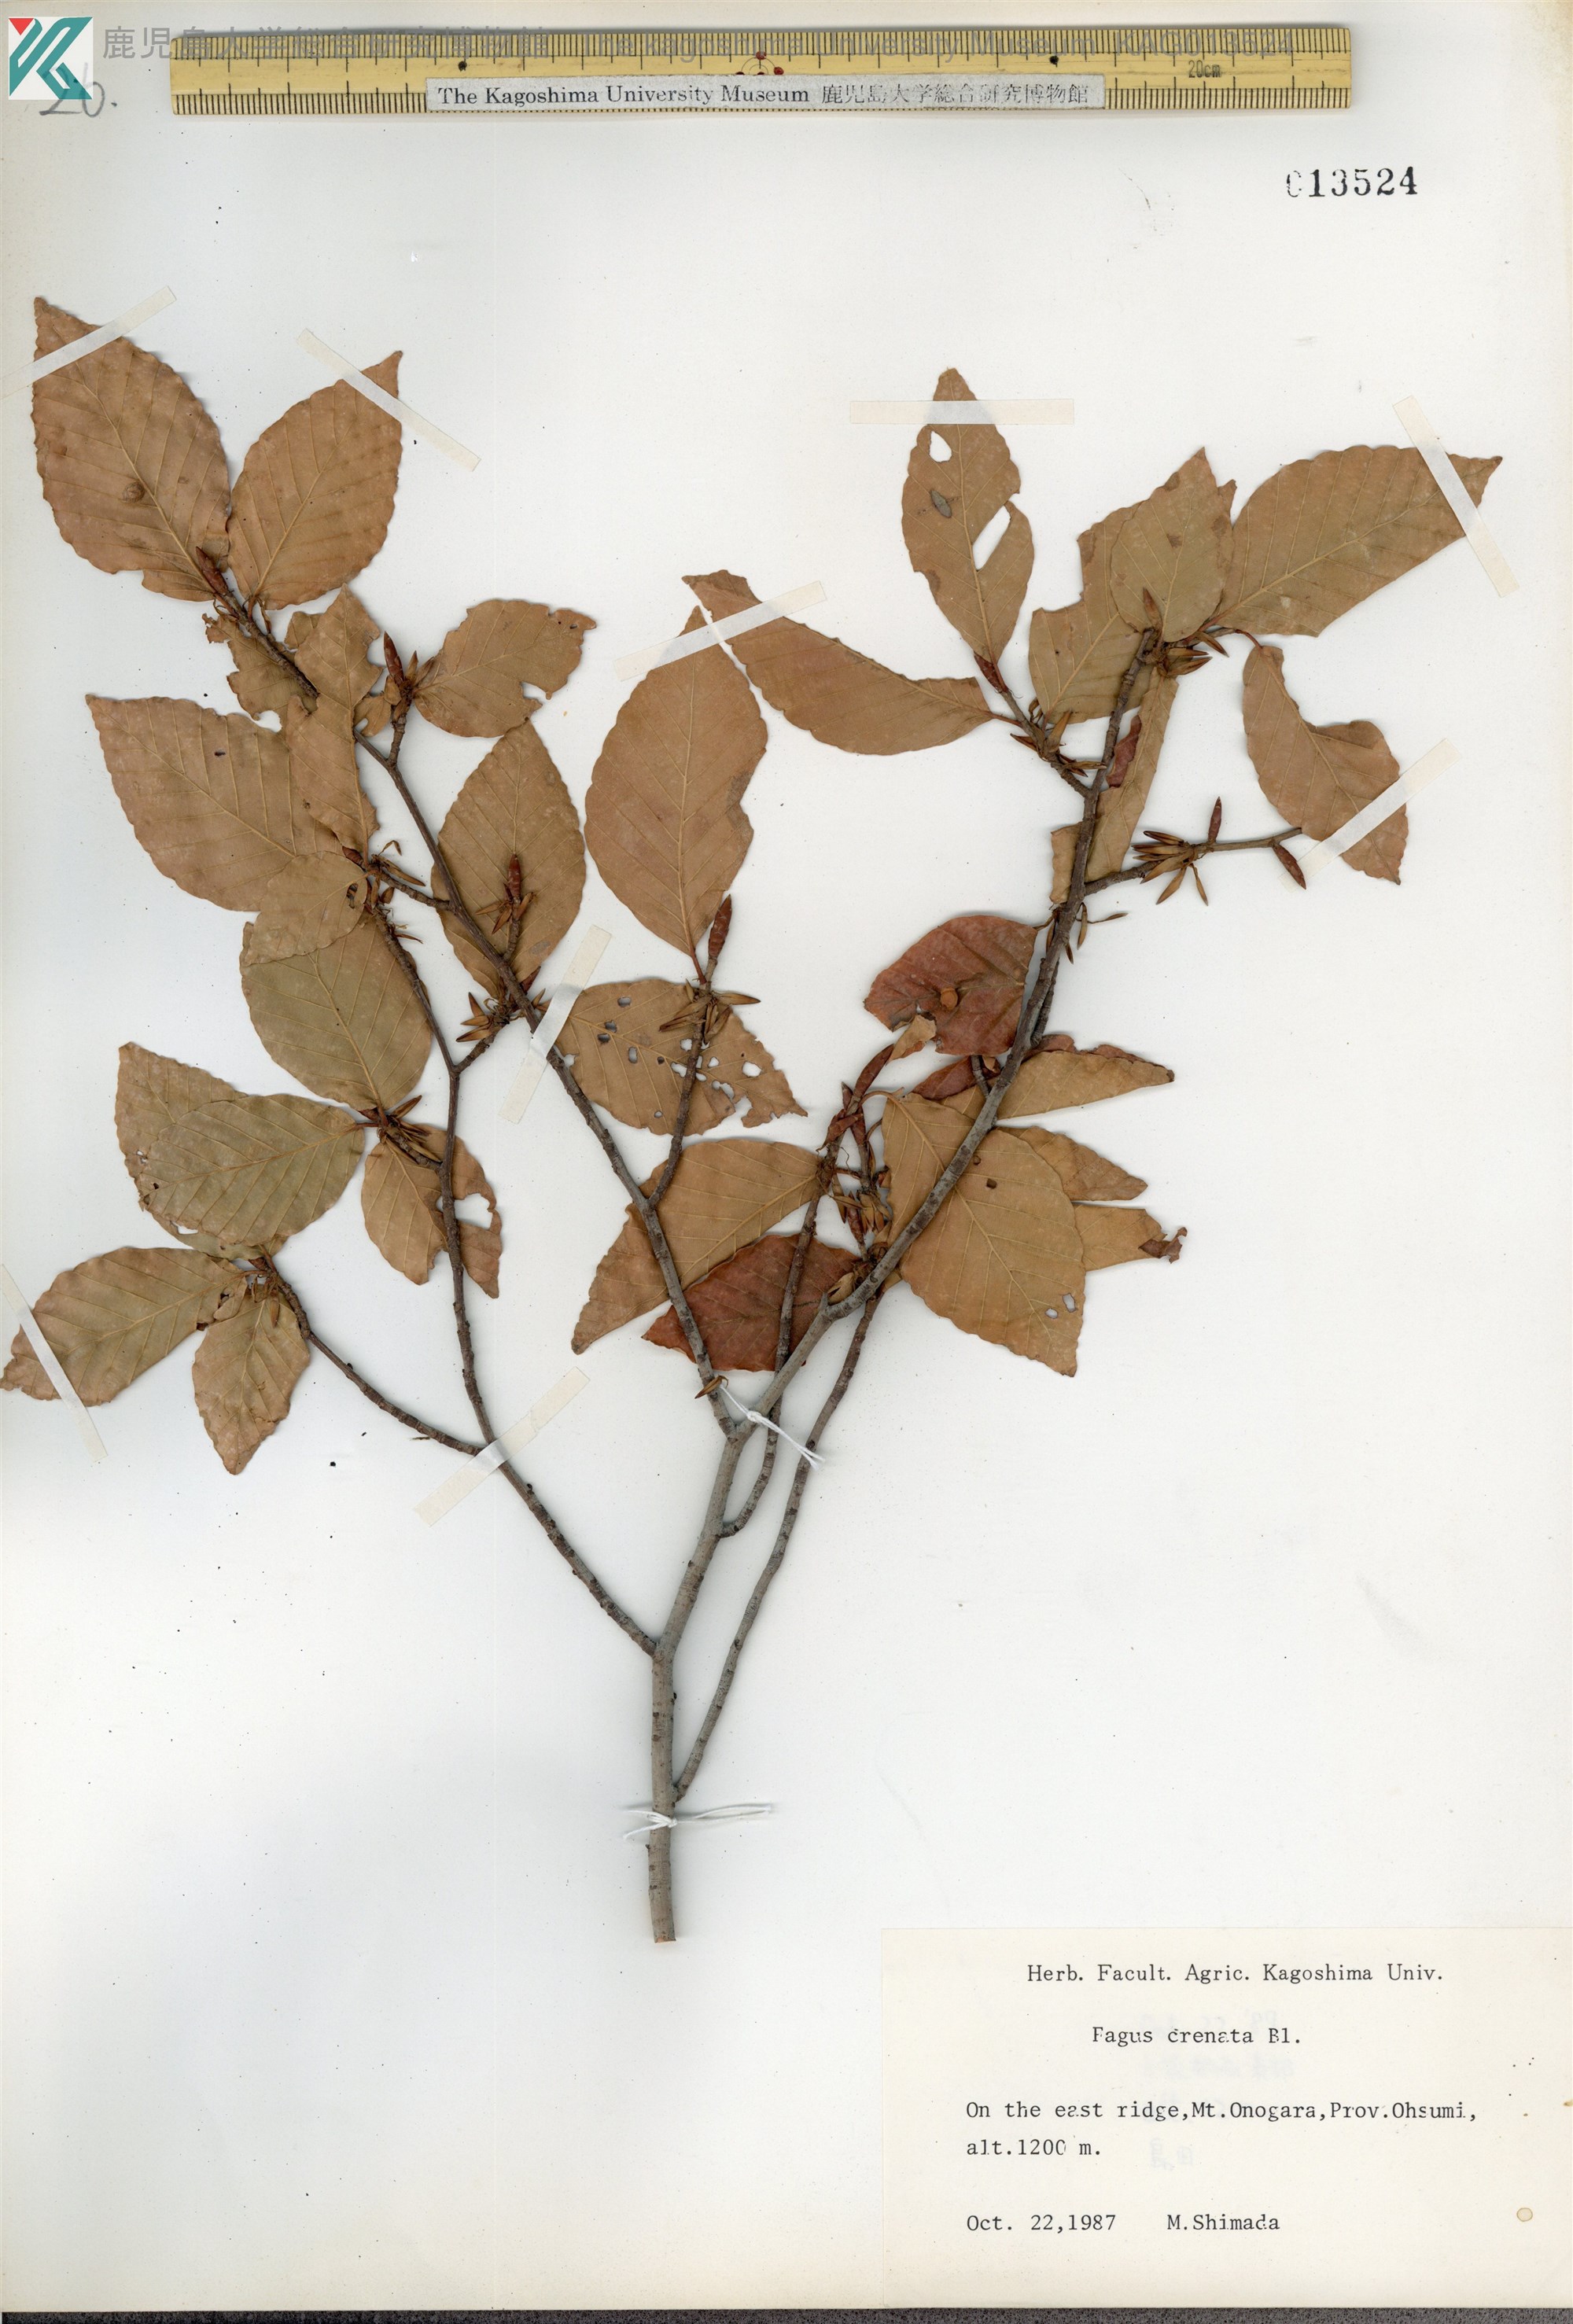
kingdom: Plantae
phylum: Tracheophyta
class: Magnoliopsida
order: Fagales
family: Fagaceae
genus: Fagus
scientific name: Fagus crenata
